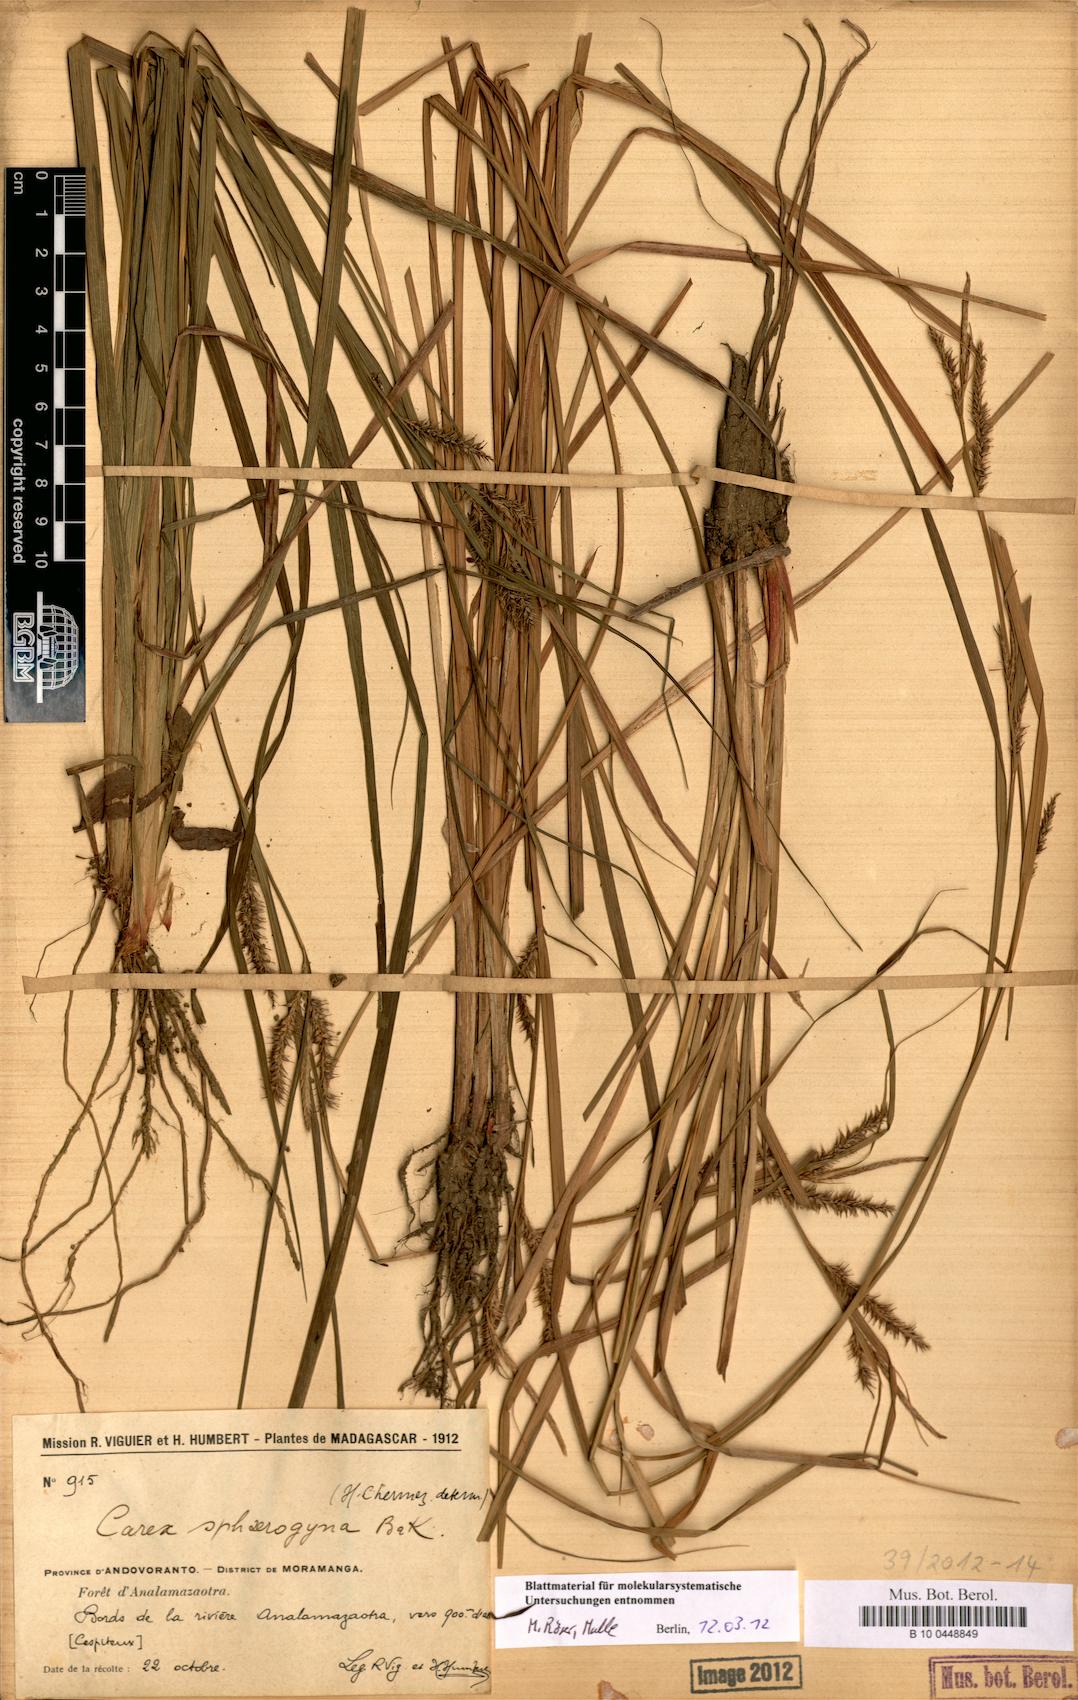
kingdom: Plantae
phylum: Tracheophyta
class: Liliopsida
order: Poales
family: Cyperaceae
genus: Carex
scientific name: Carex sphaerogyna
